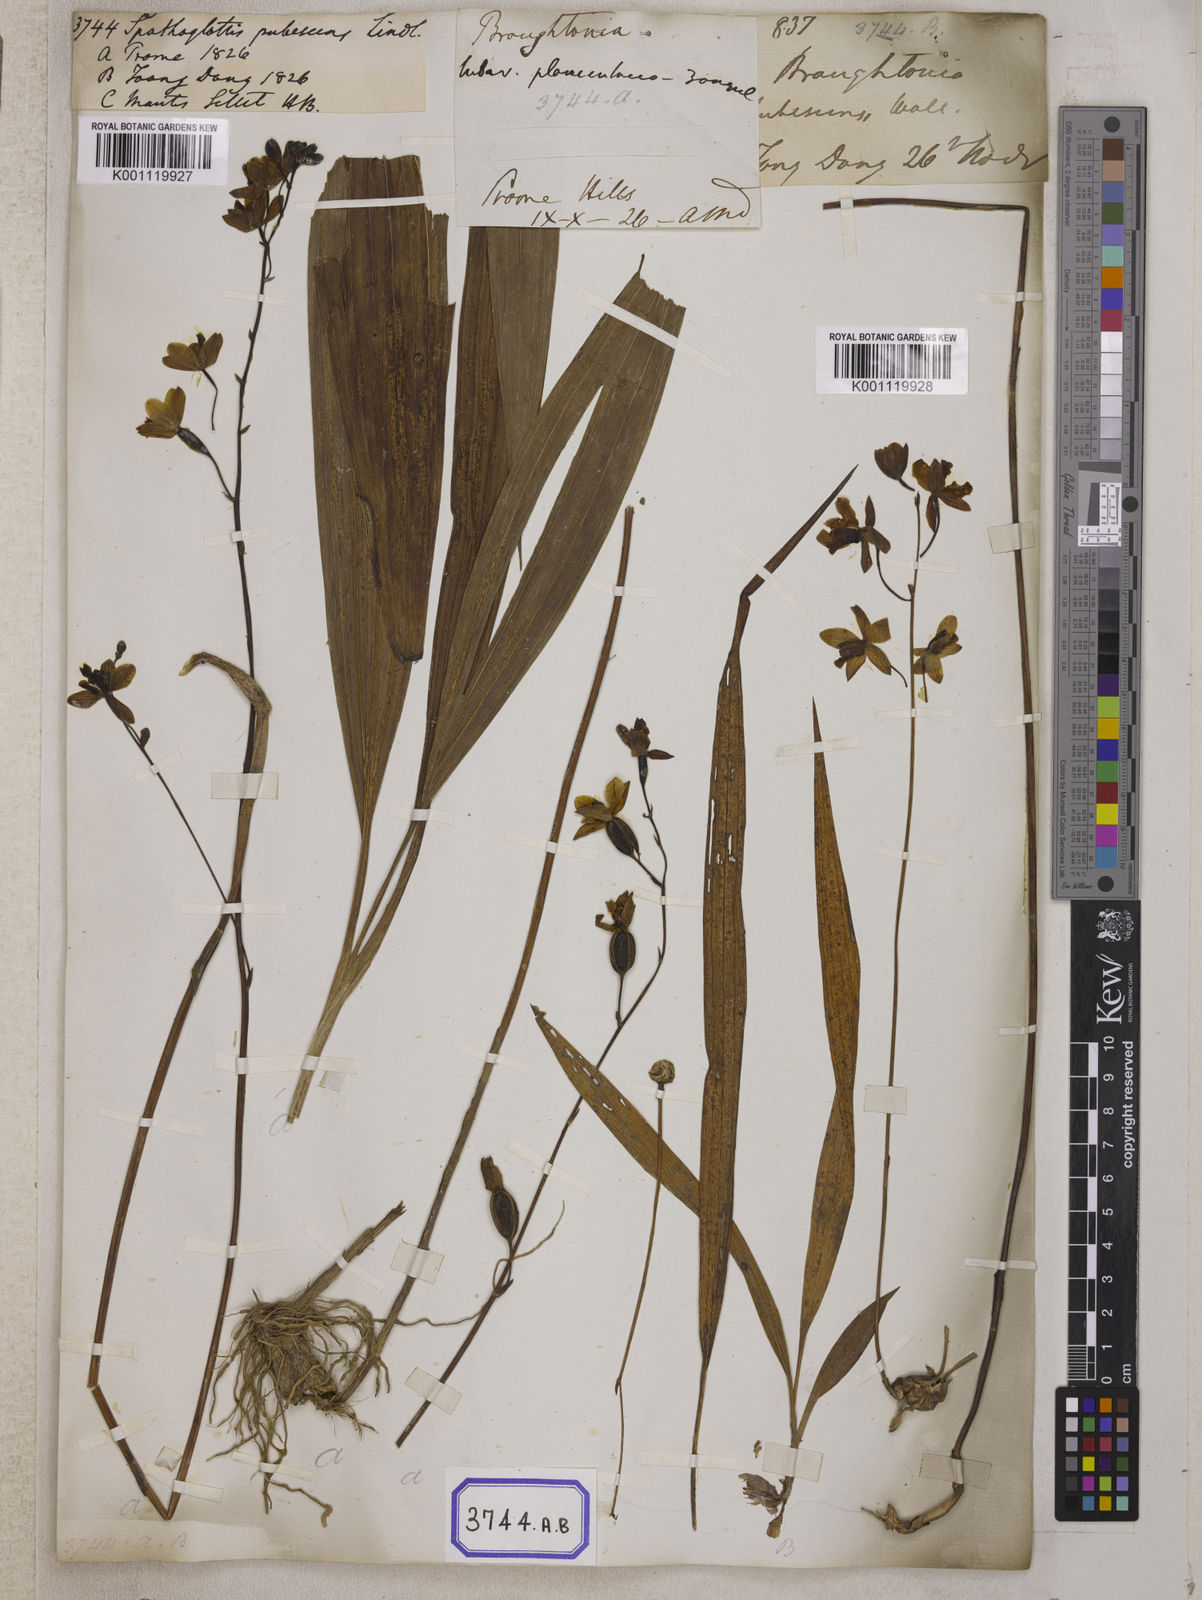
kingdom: Plantae
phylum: Tracheophyta
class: Liliopsida
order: Asparagales
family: Orchidaceae
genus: Spathoglottis
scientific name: Spathoglottis pubescens
